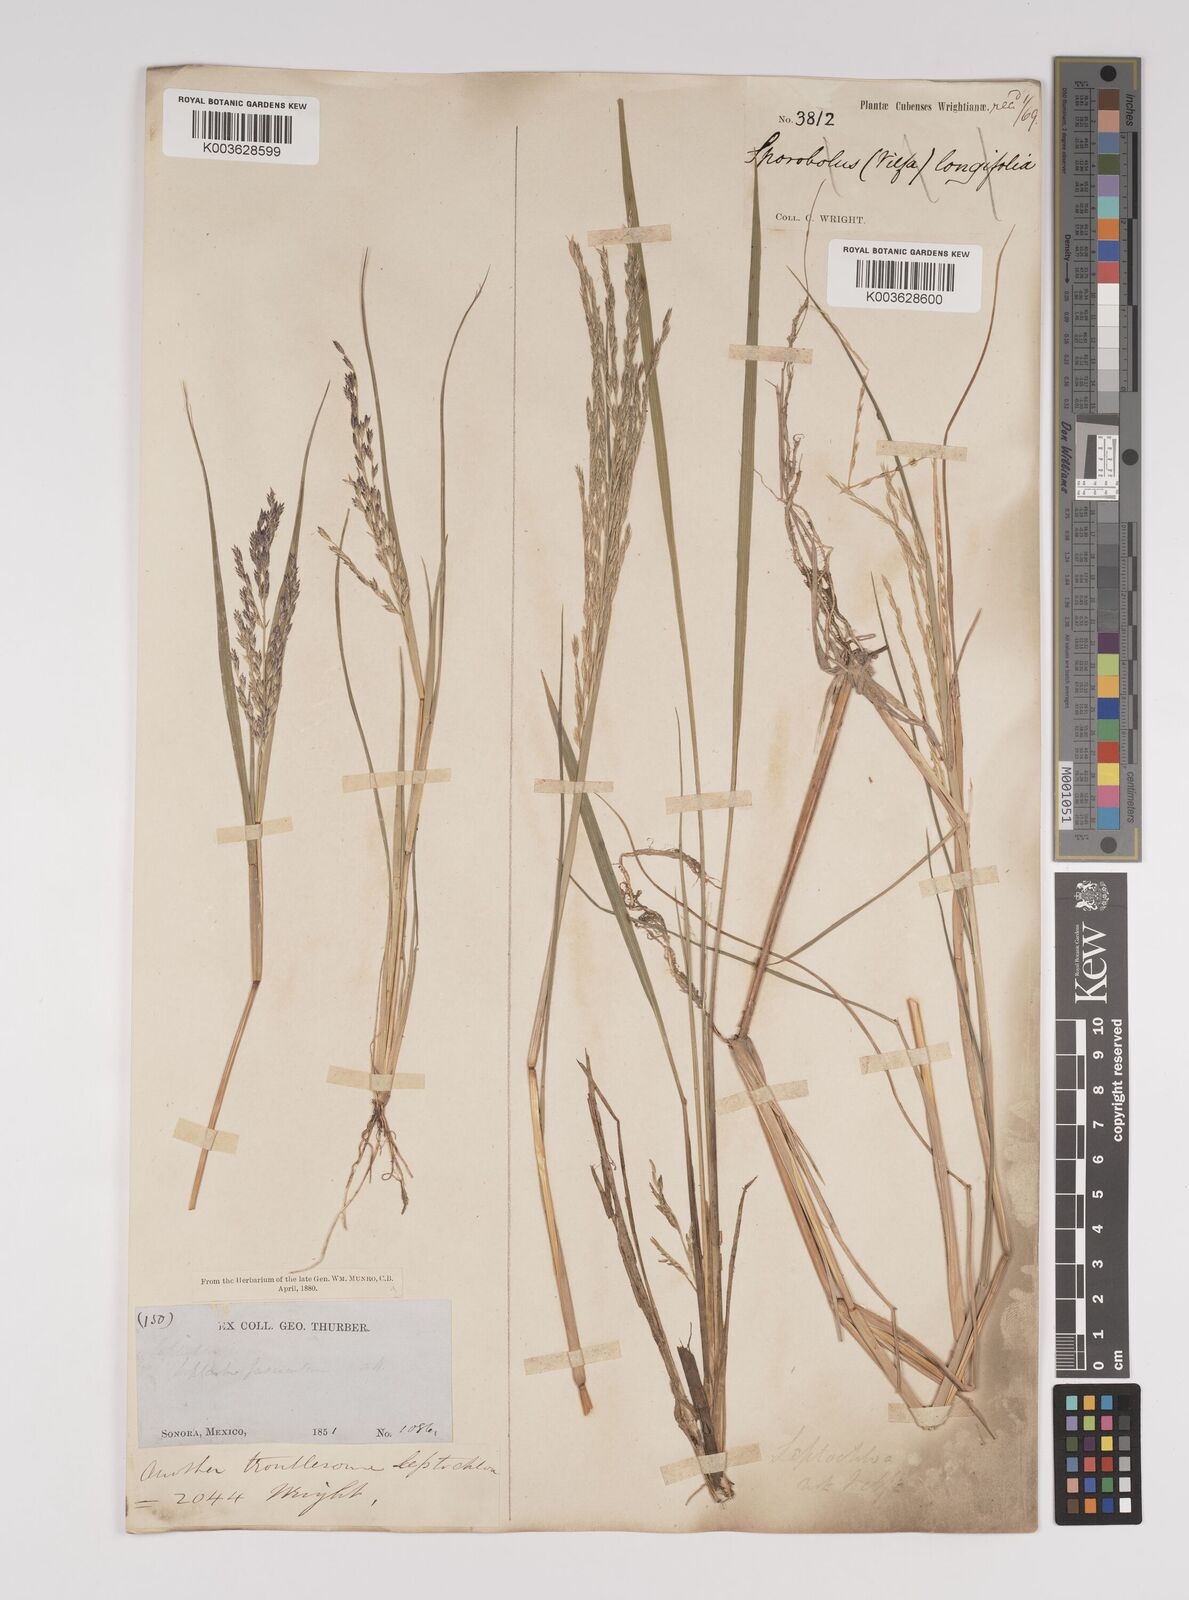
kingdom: Plantae
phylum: Tracheophyta
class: Liliopsida
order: Poales
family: Poaceae
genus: Diplachne
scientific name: Diplachne fusca
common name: Brown beetle grass
